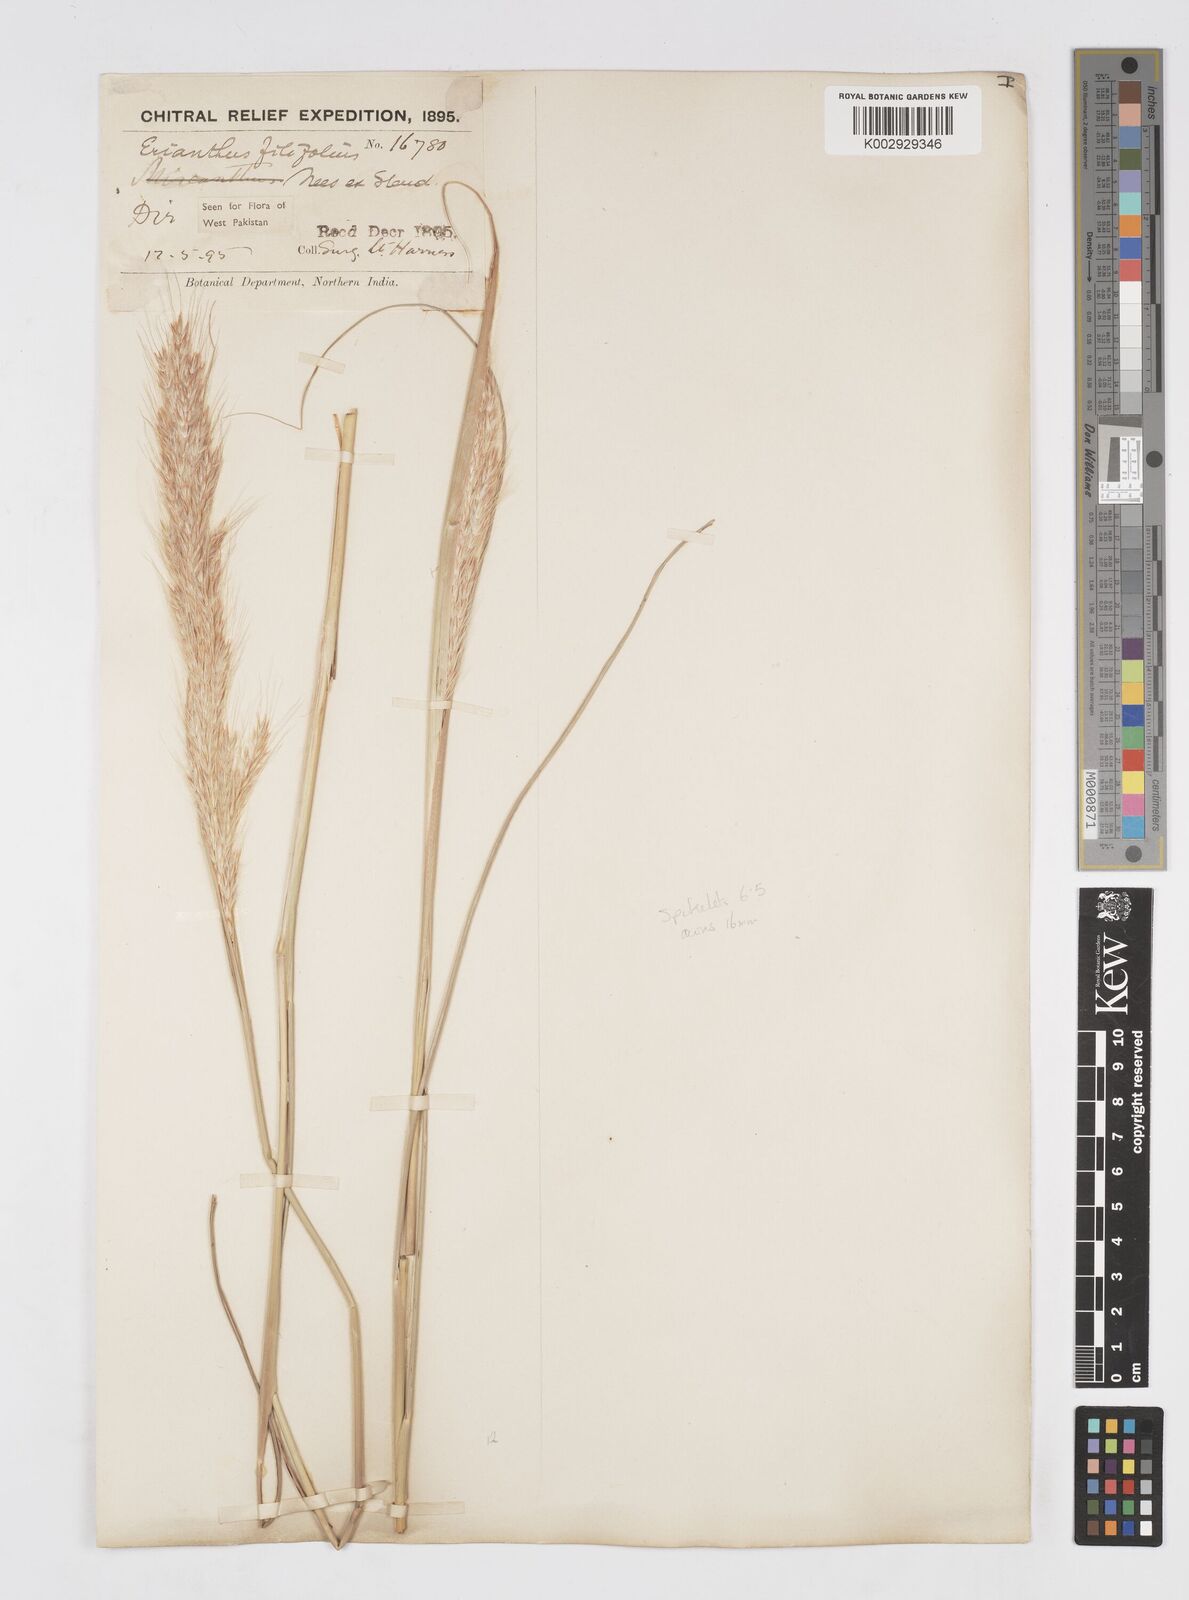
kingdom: Plantae
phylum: Tracheophyta
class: Liliopsida
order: Poales
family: Poaceae
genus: Saccharum
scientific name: Saccharum filifolium
